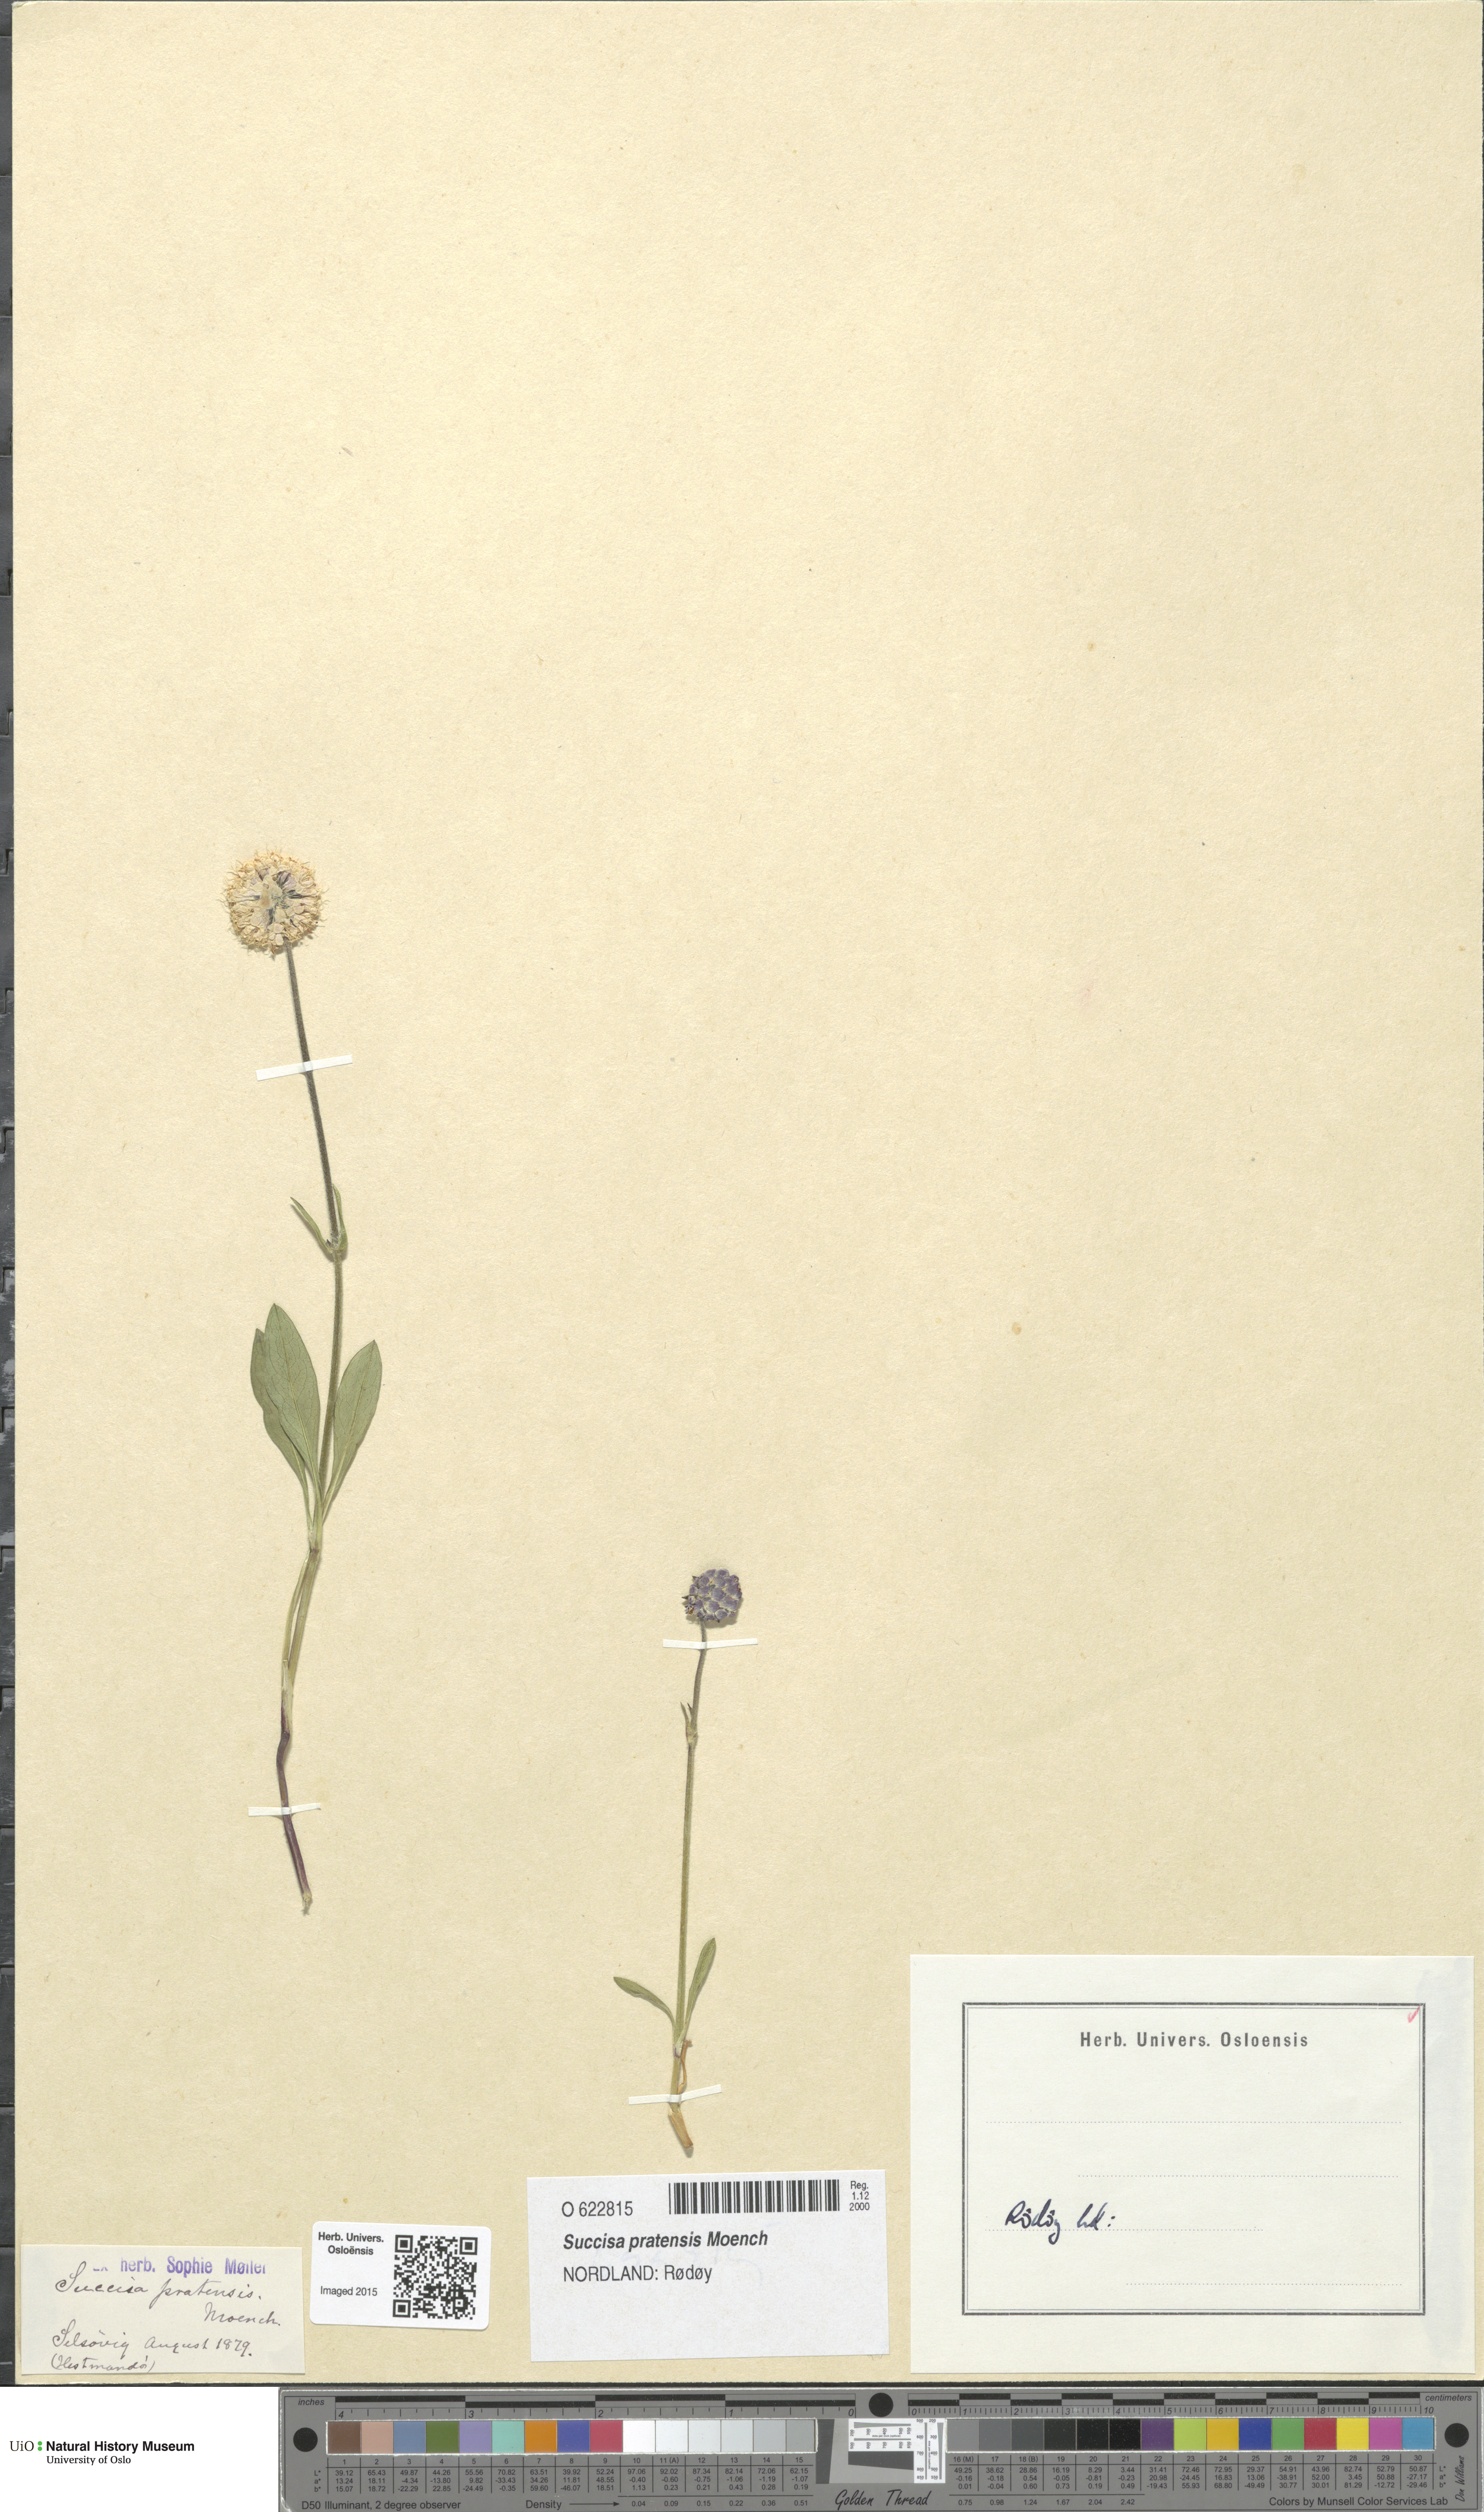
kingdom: Plantae
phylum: Tracheophyta
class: Magnoliopsida
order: Dipsacales
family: Caprifoliaceae
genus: Succisa
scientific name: Succisa pratensis
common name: Devil's-bit
